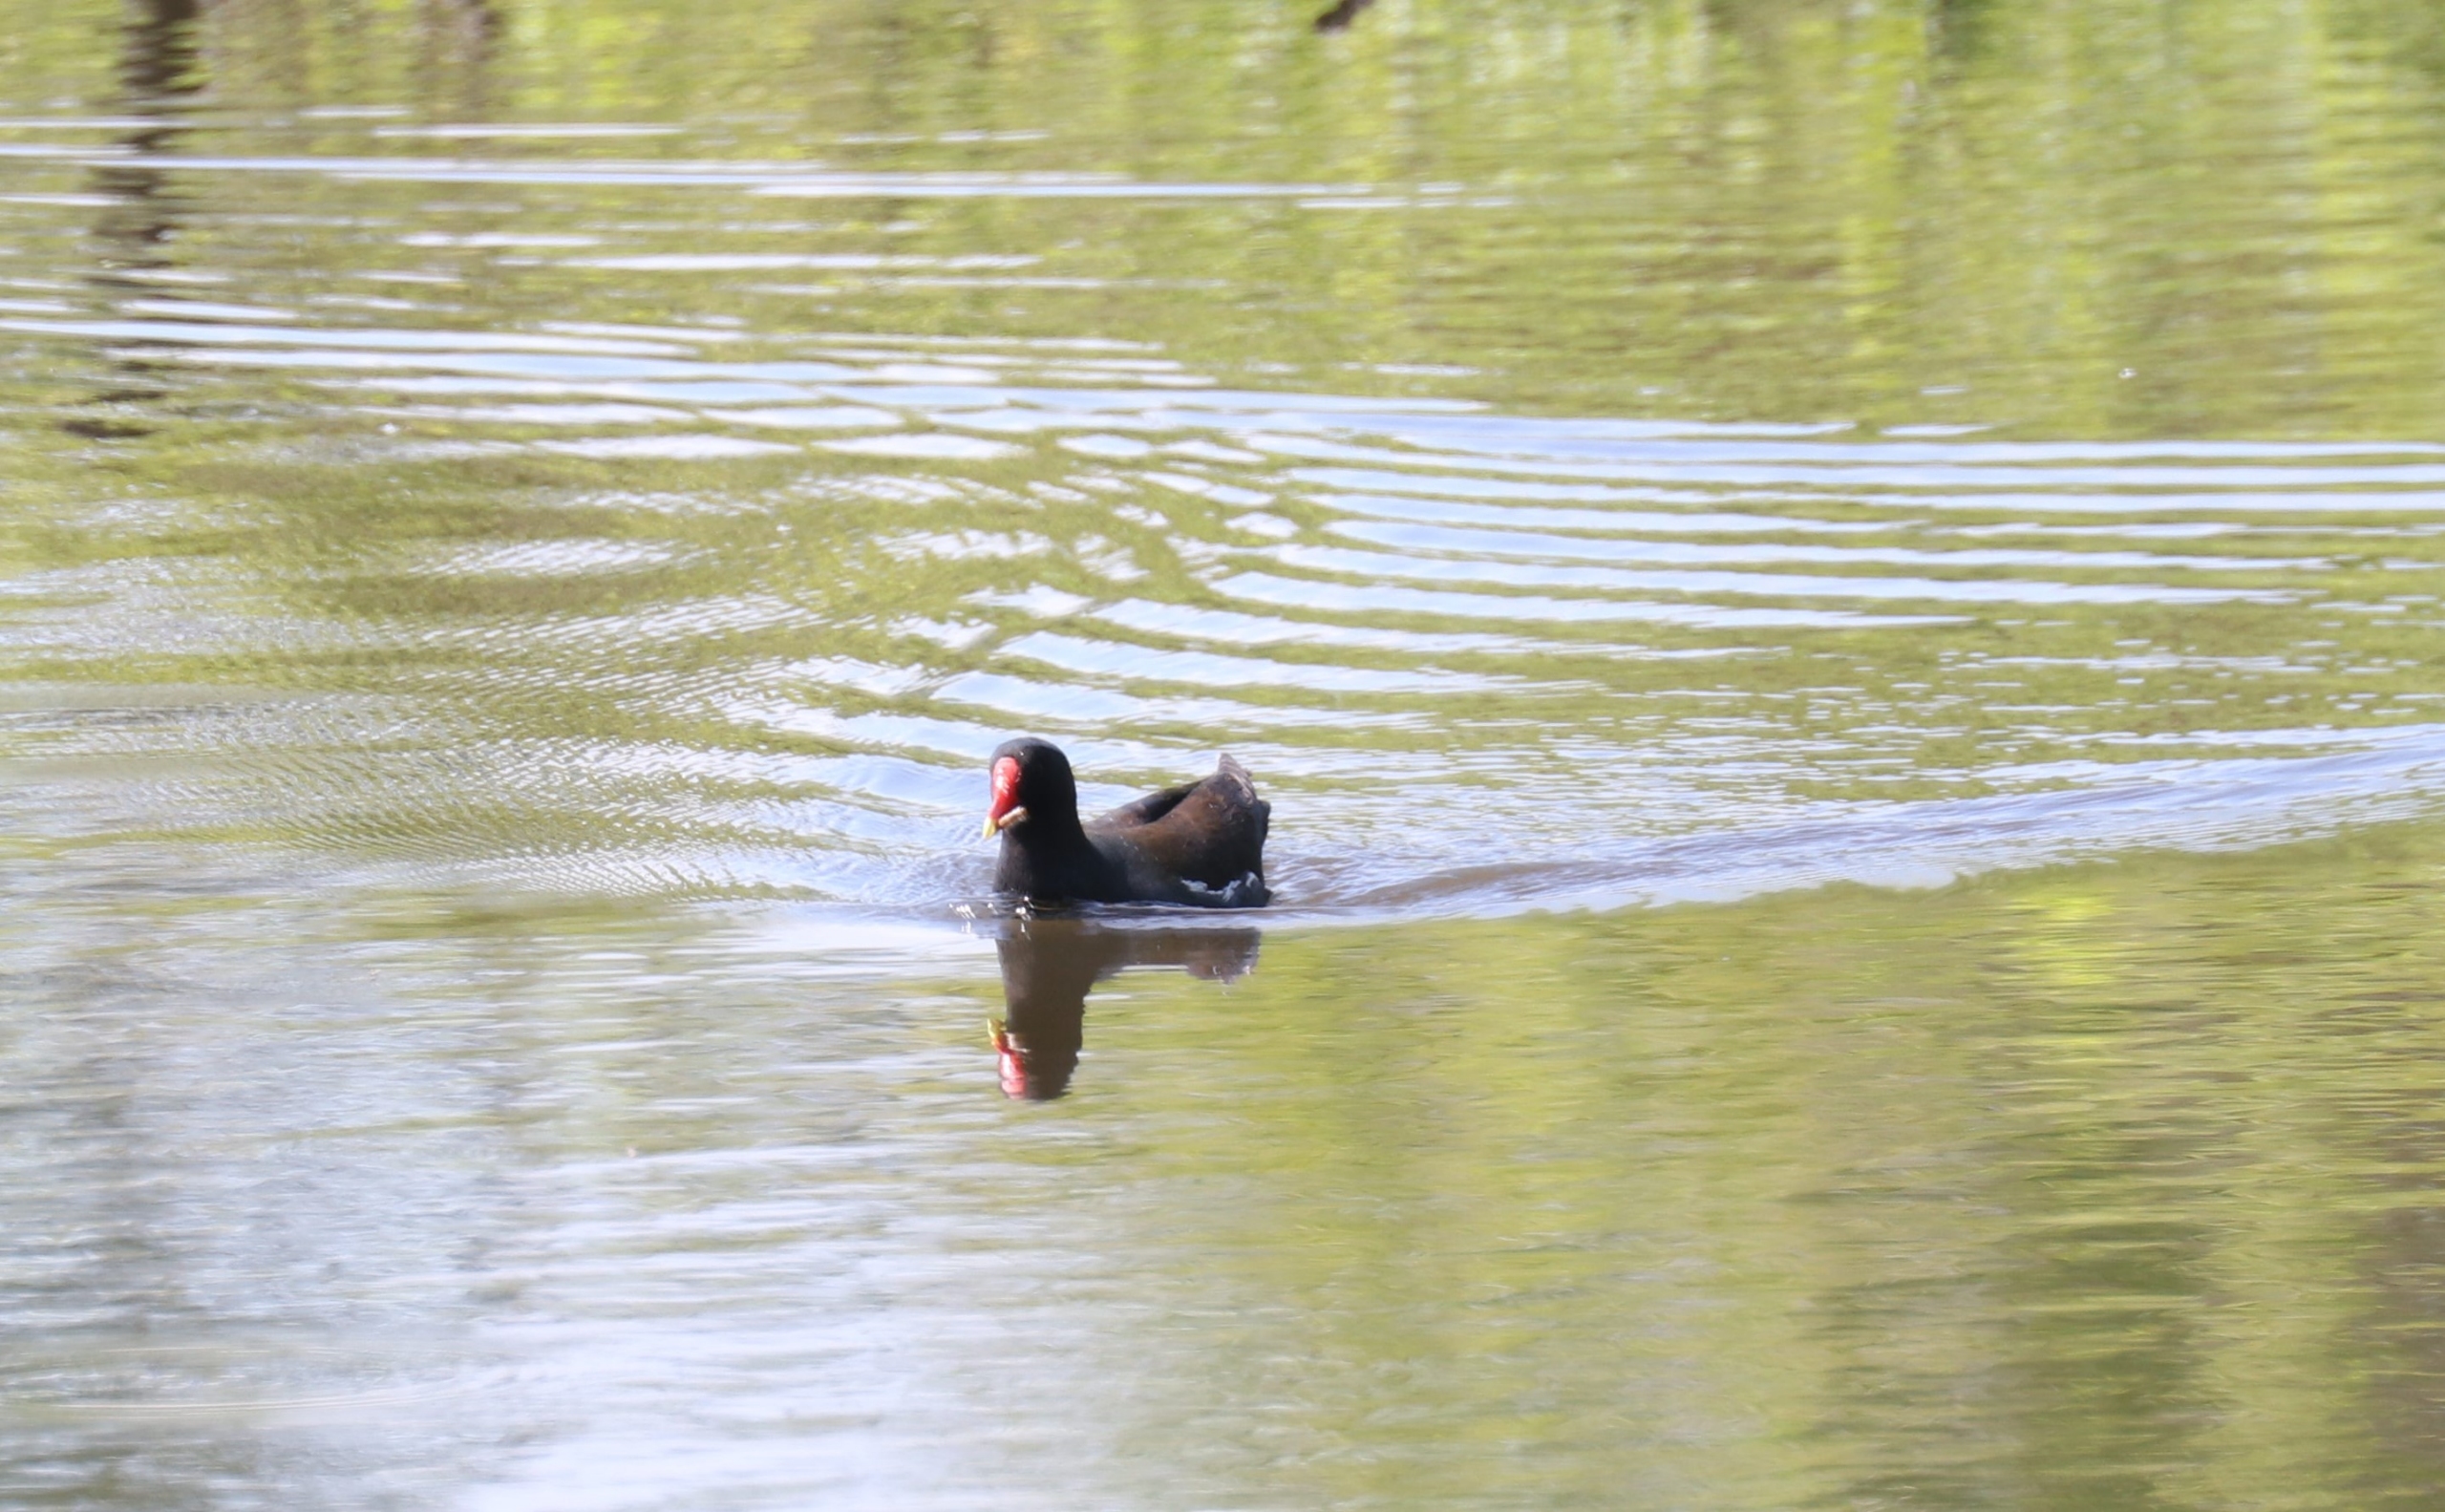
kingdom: Animalia
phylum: Chordata
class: Aves
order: Gruiformes
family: Rallidae
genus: Gallinula
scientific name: Gallinula chloropus
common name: Grønbenet rørhøne
